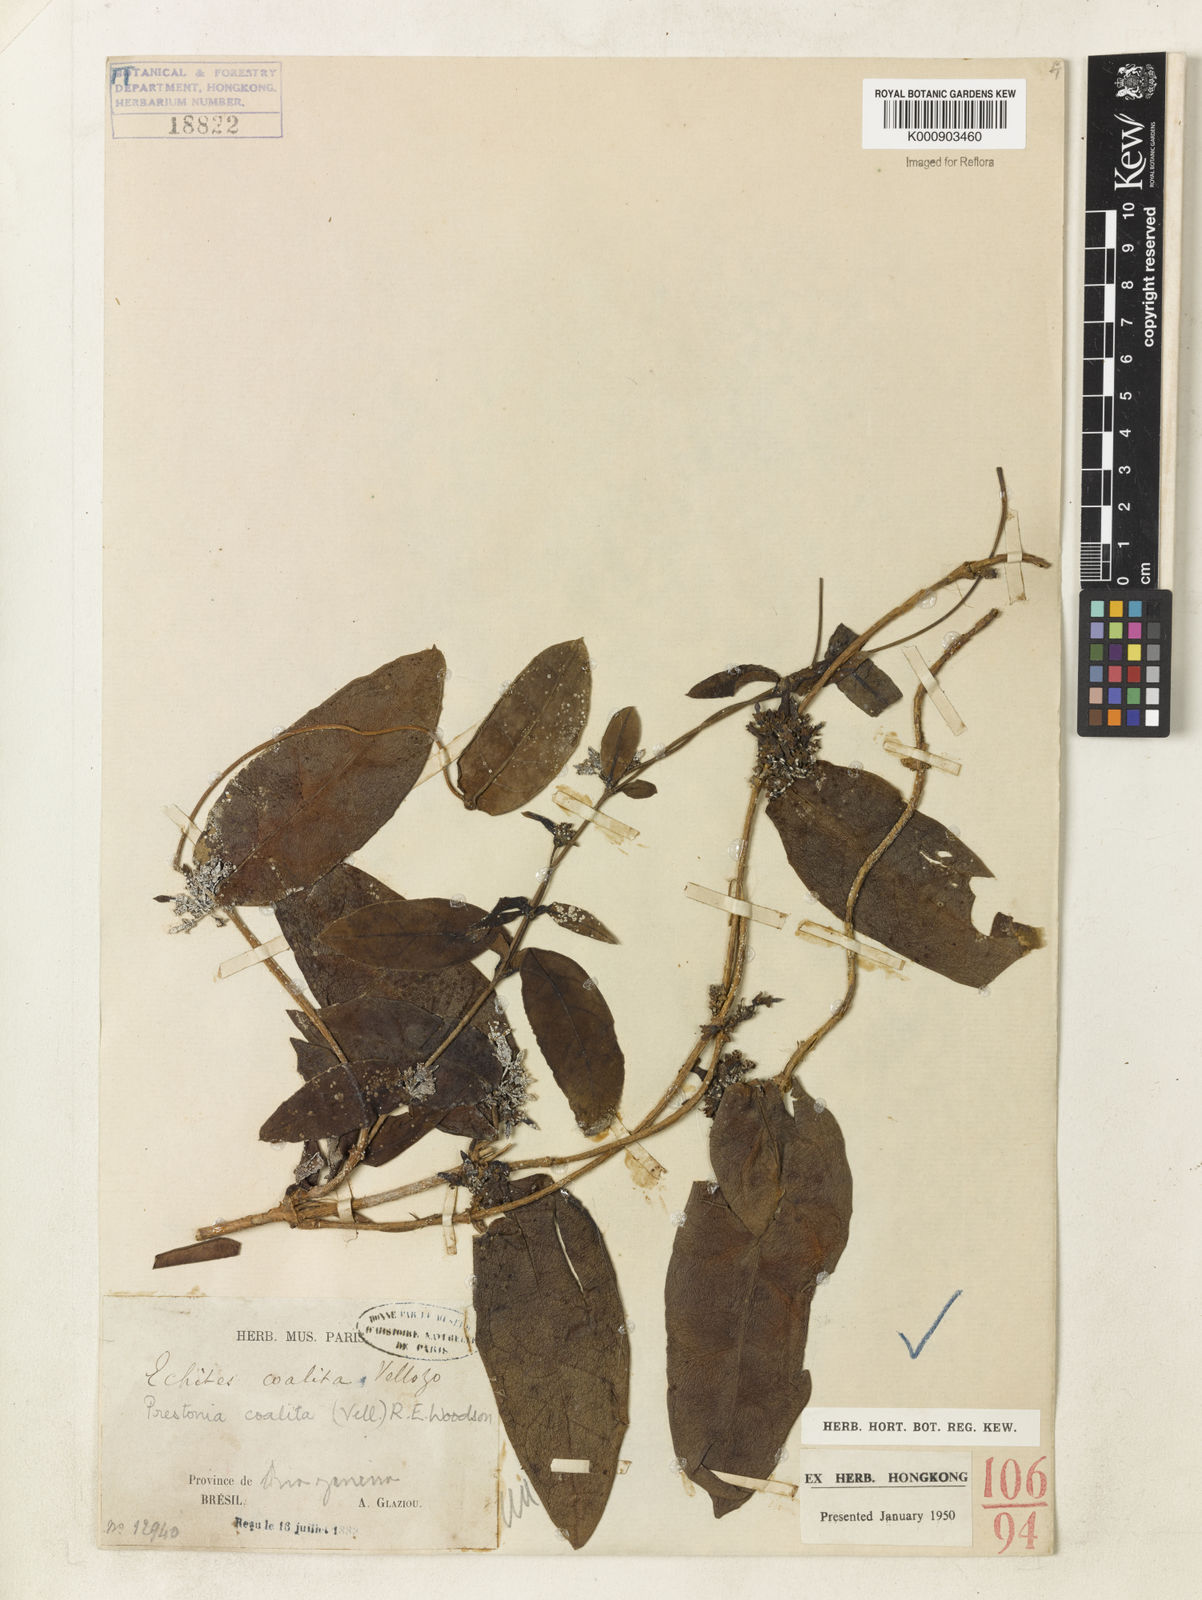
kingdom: Plantae
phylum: Tracheophyta
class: Magnoliopsida
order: Gentianales
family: Apocynaceae
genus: Prestonia
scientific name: Prestonia coalita
